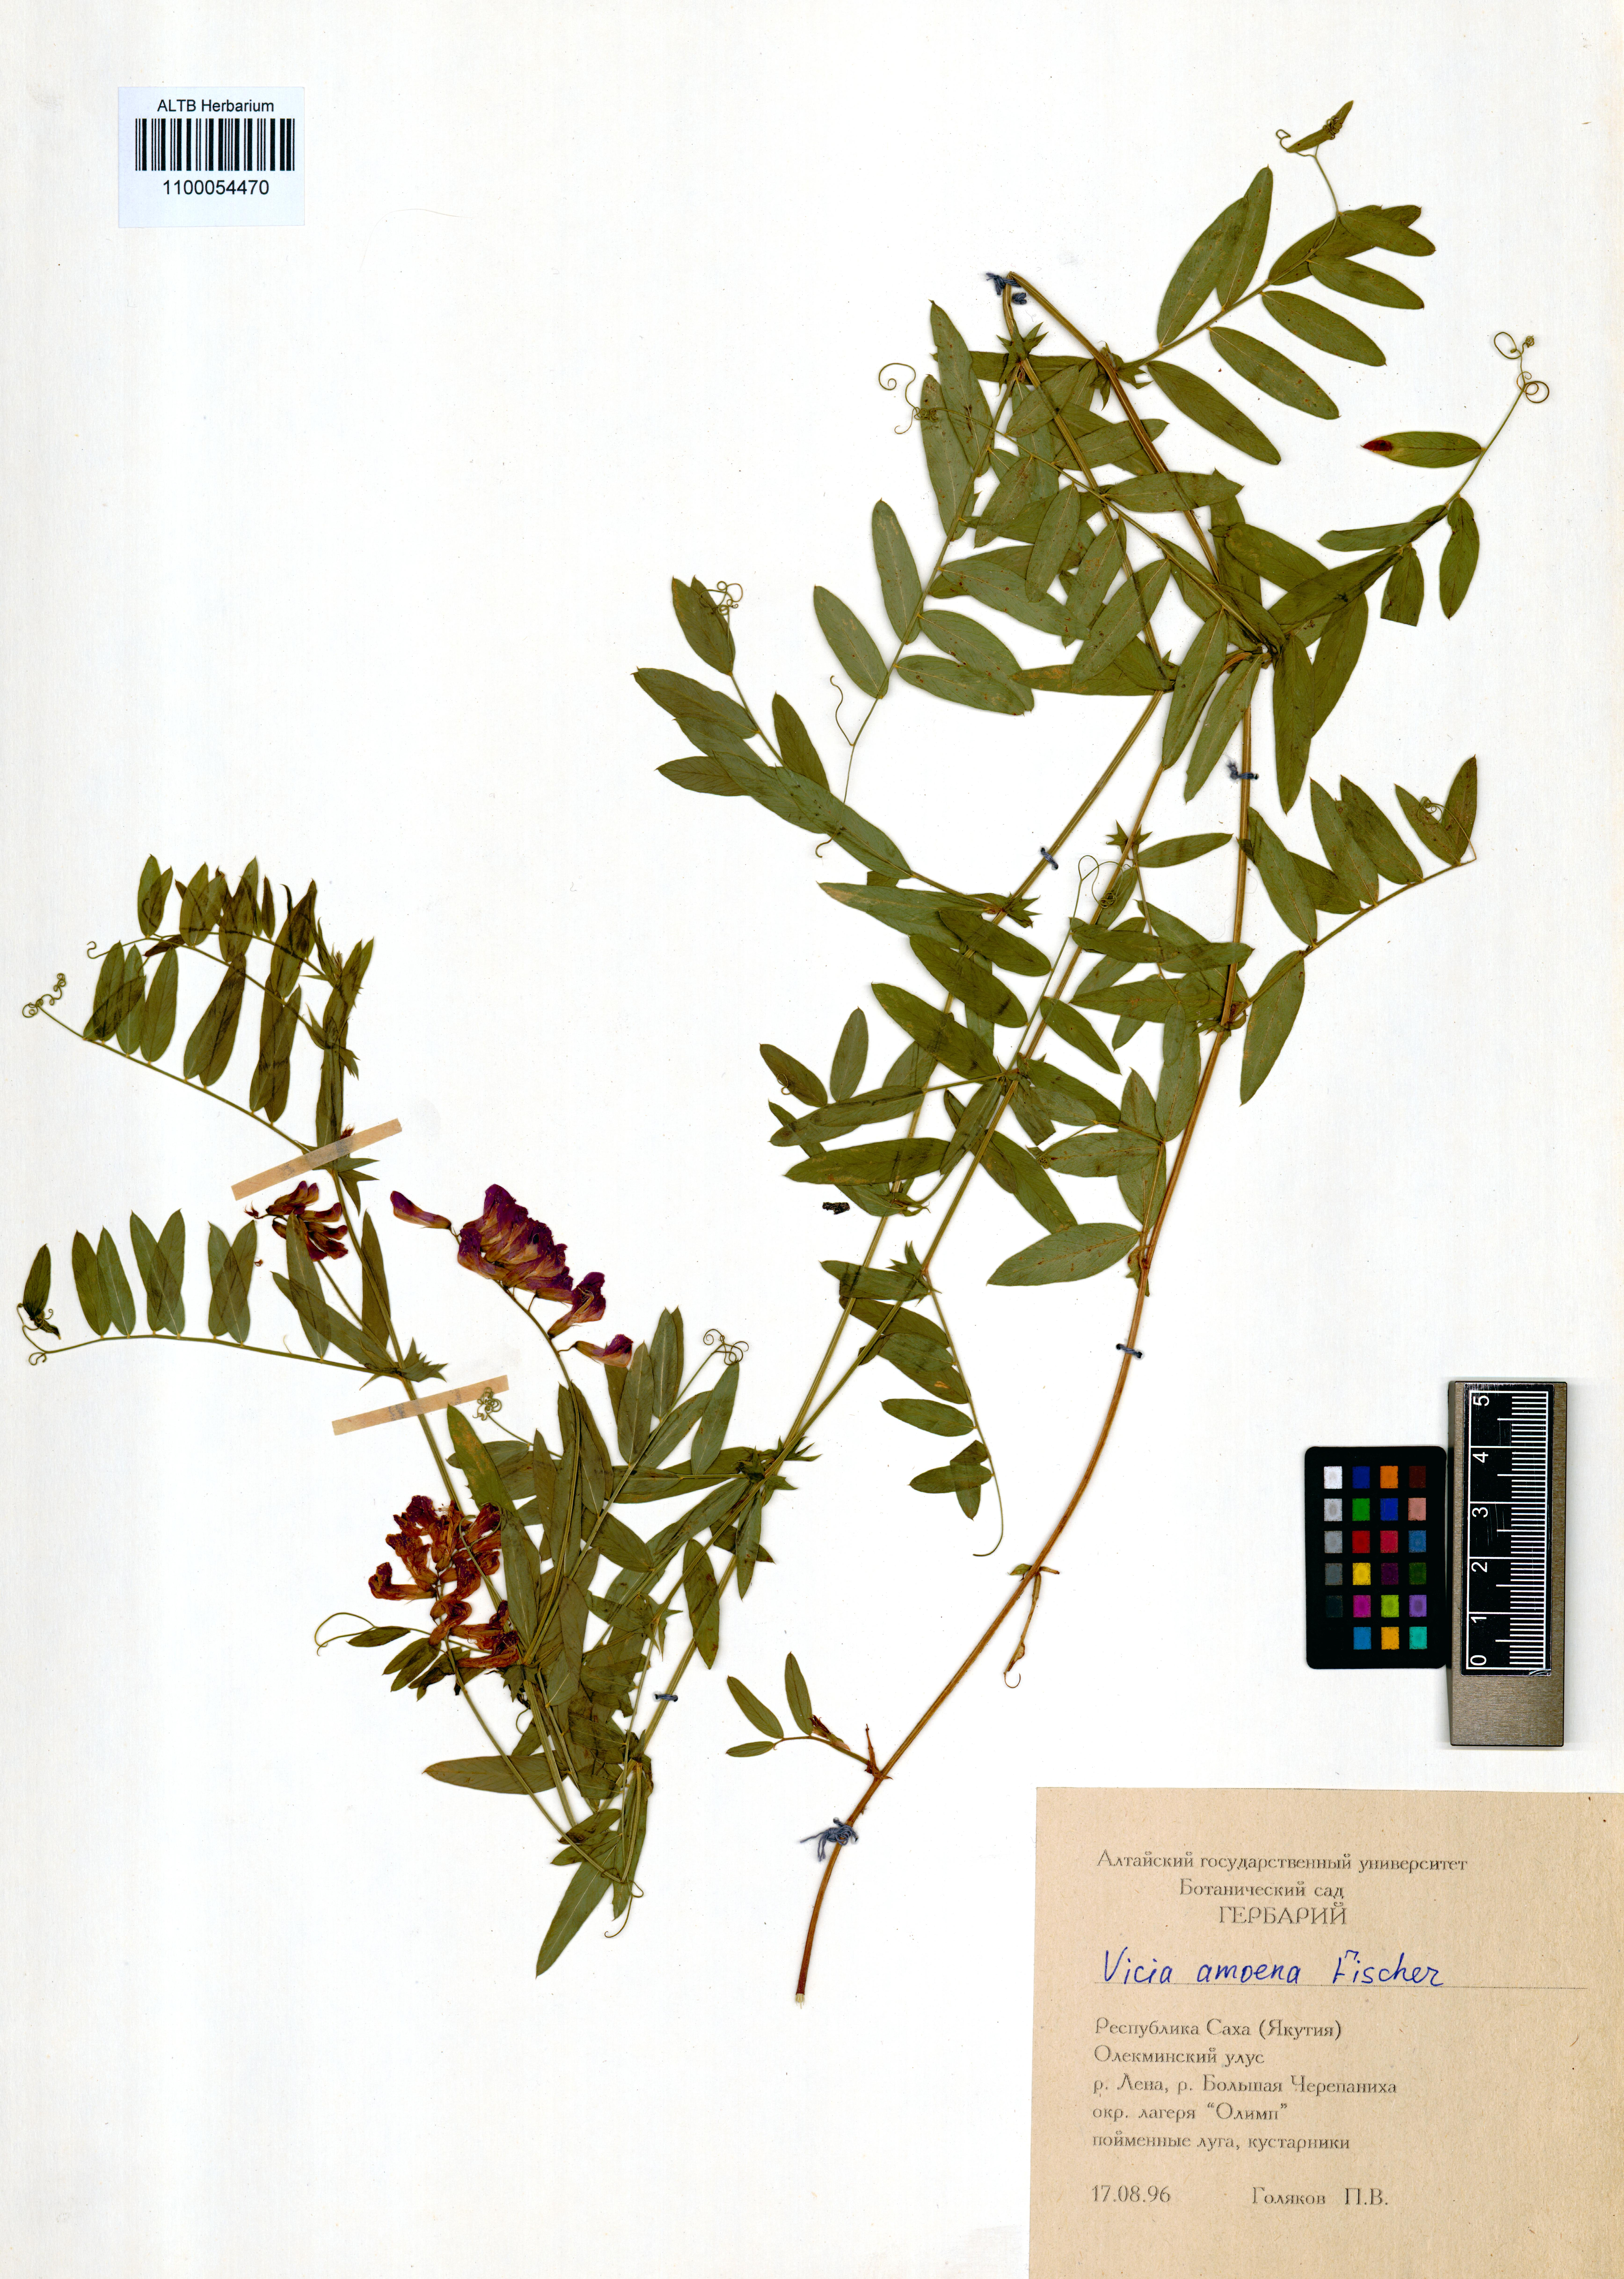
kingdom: Plantae
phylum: Tracheophyta
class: Magnoliopsida
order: Fabales
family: Fabaceae
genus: Vicia
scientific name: Vicia amoena
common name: Cheder ebs
